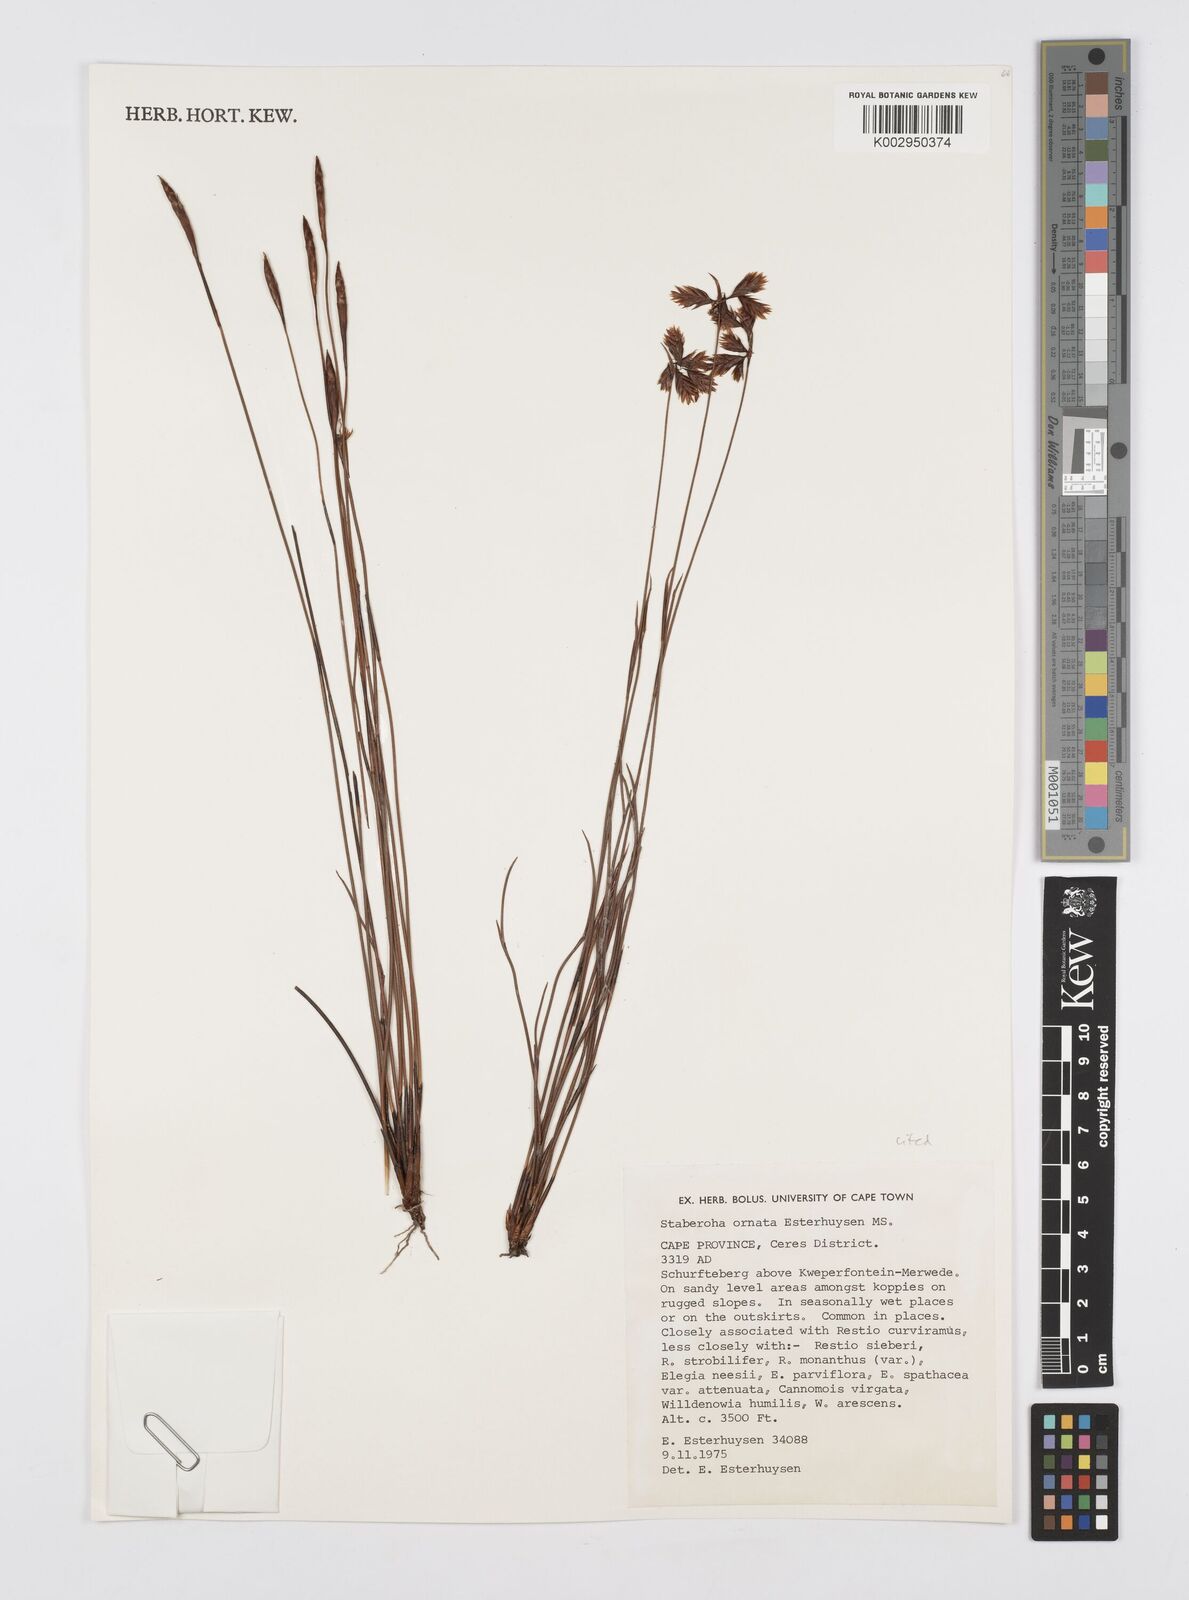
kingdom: Plantae
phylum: Tracheophyta
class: Liliopsida
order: Poales
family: Restionaceae
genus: Staberoha
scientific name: Staberoha ornata
